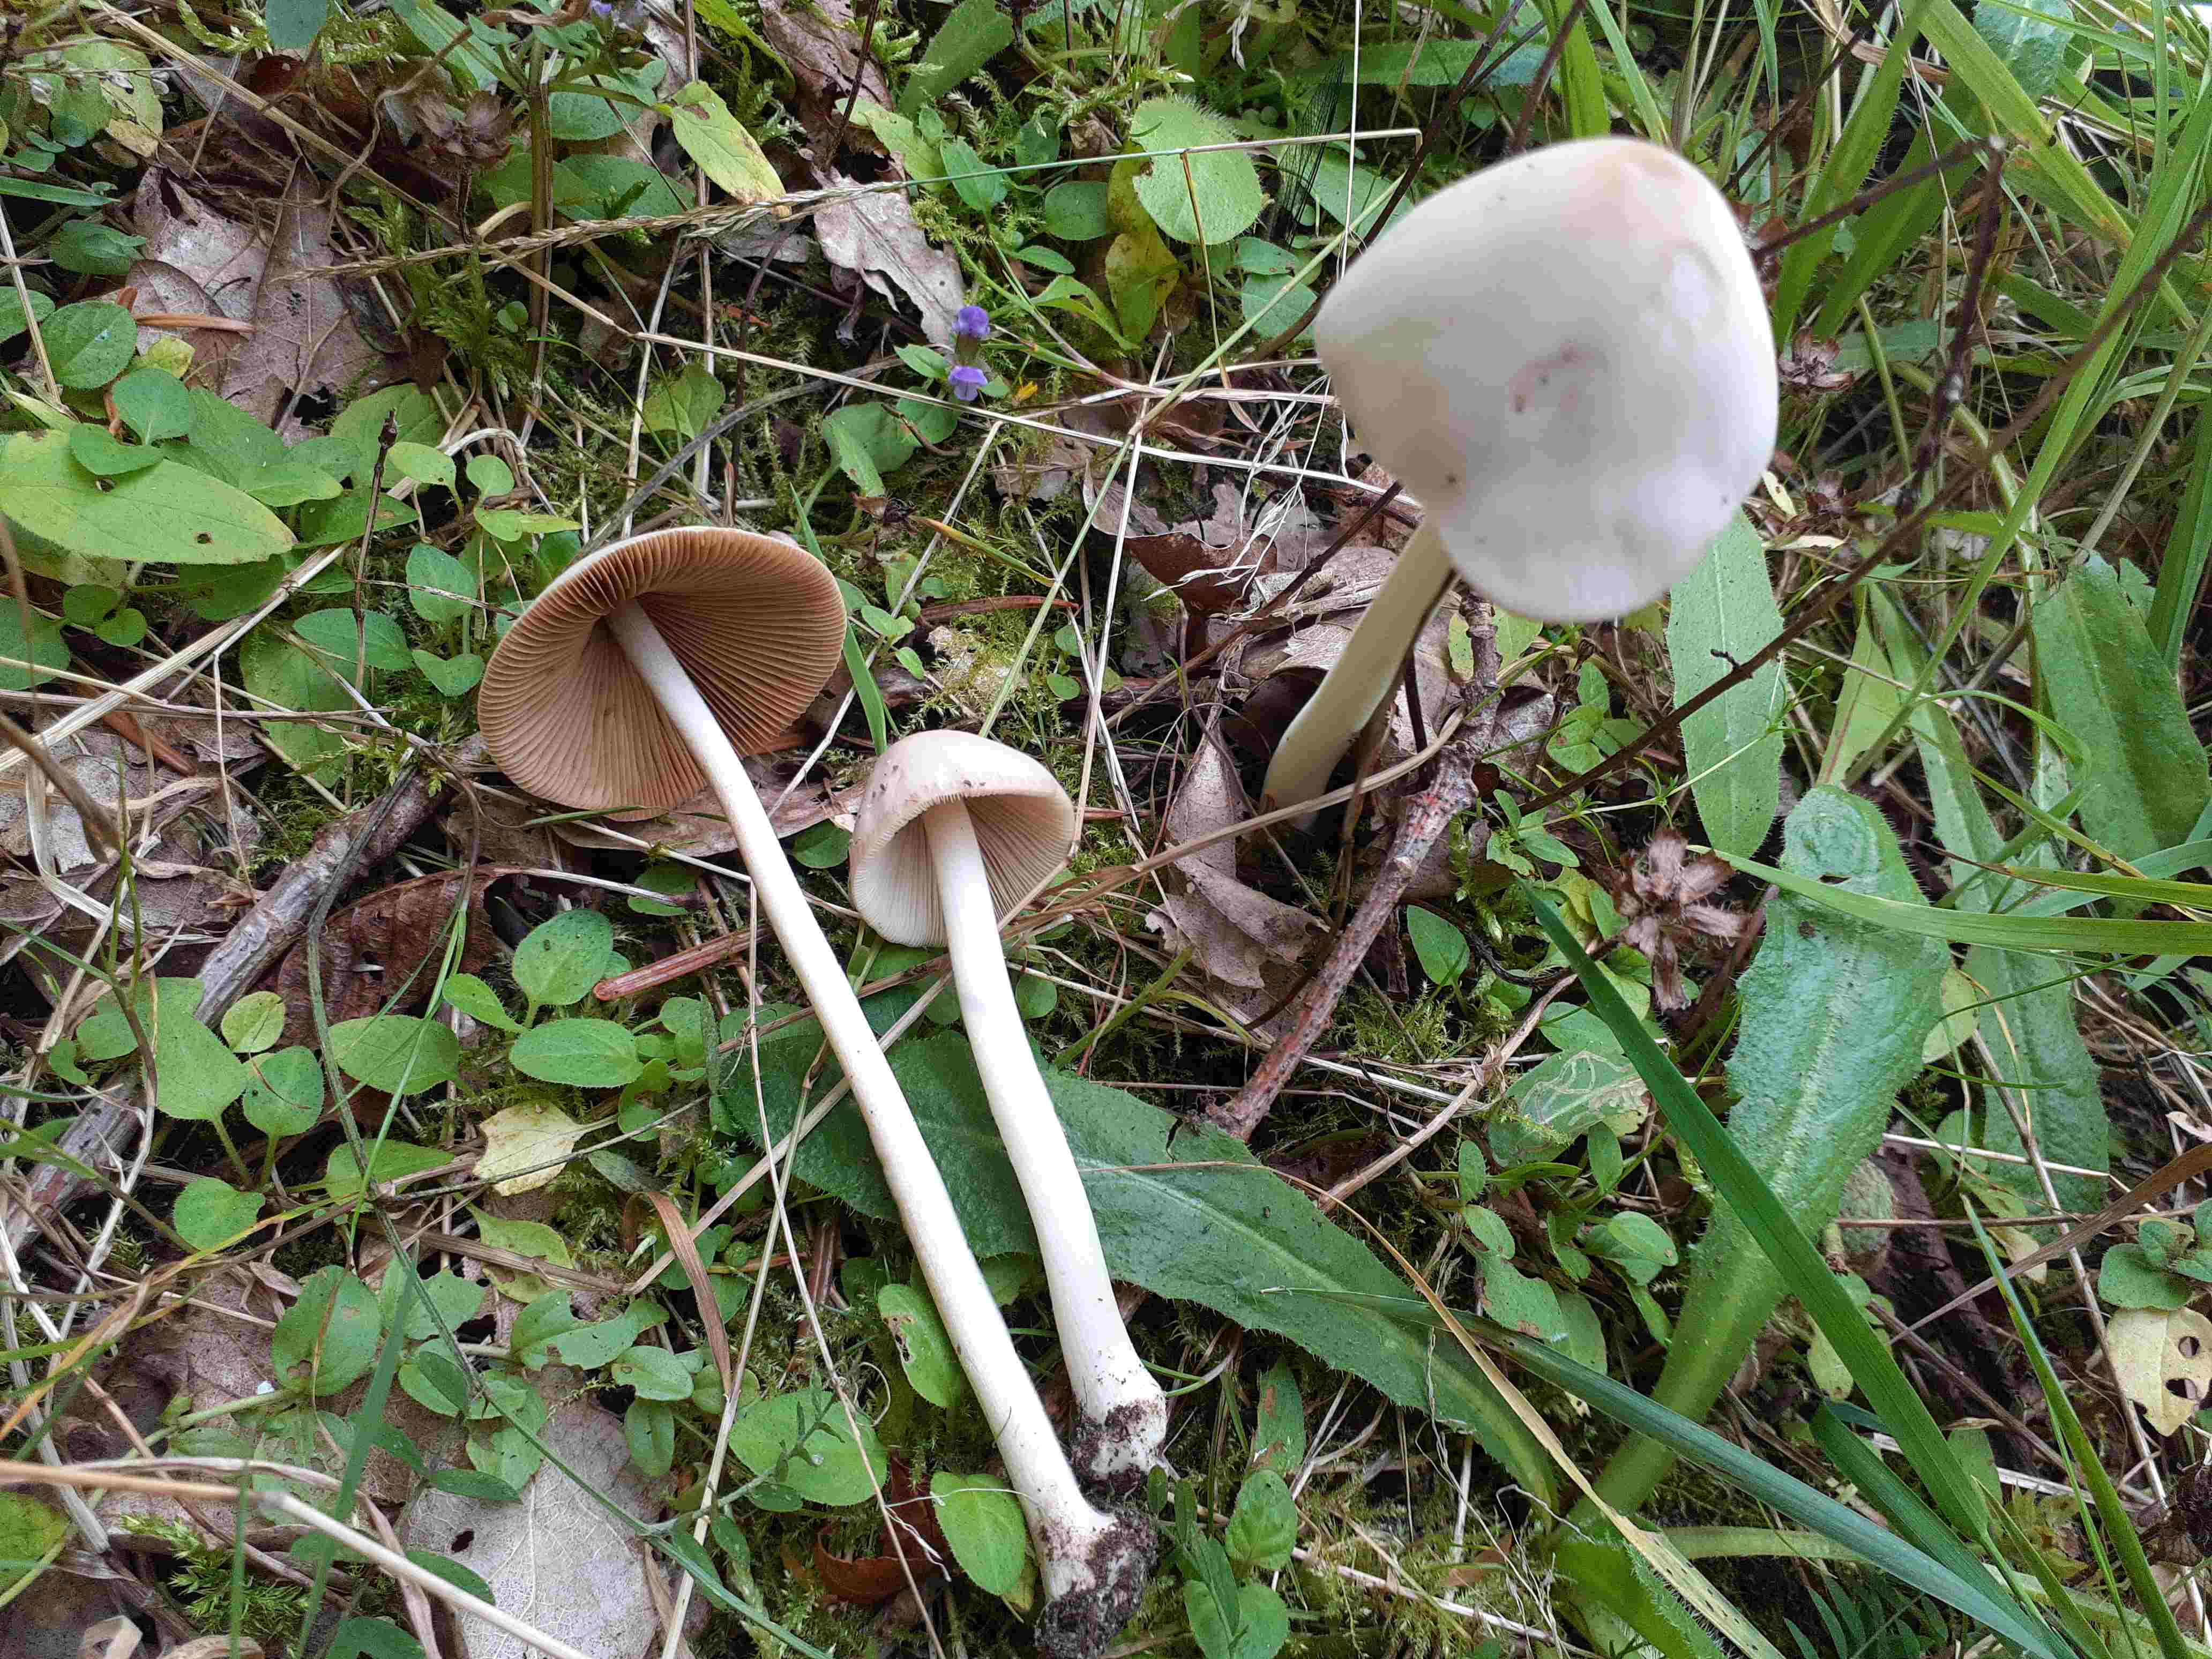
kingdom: Fungi
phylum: Basidiomycota
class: Agaricomycetes
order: Agaricales
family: Bolbitiaceae
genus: Conocybe
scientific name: Conocybe
